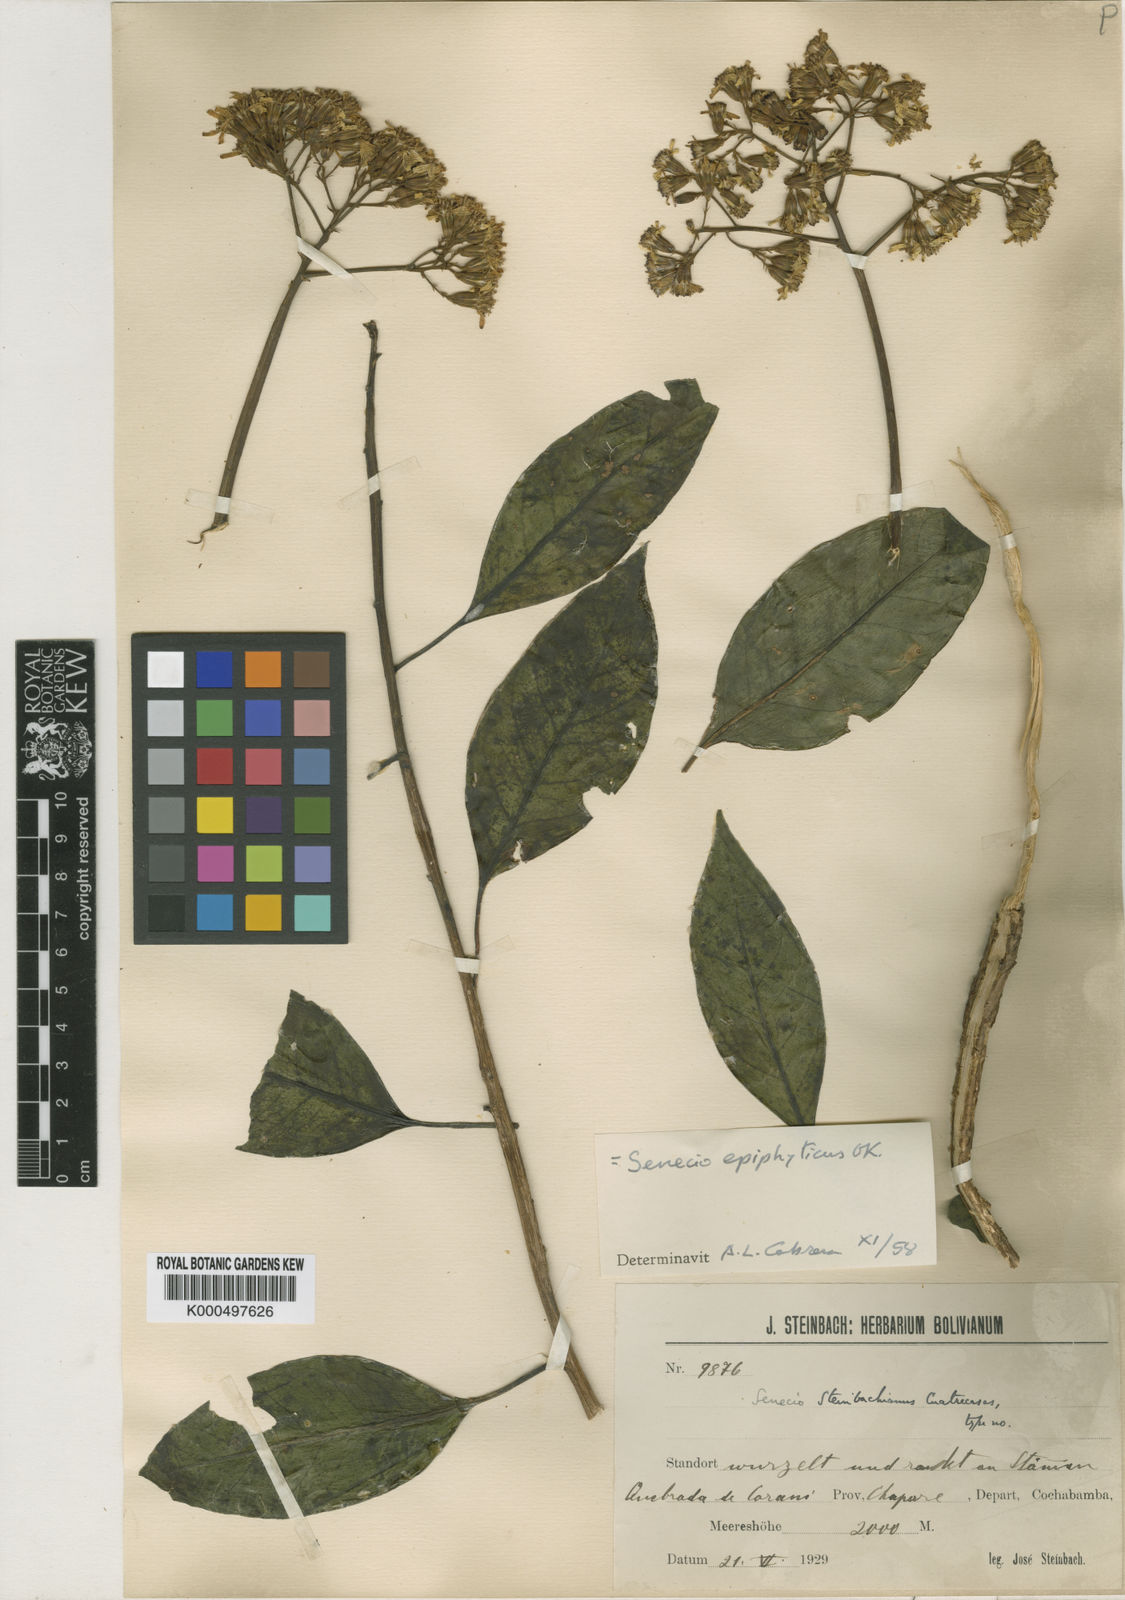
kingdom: Plantae
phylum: Tracheophyta
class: Magnoliopsida
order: Asterales
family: Asteraceae
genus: Pentacalia
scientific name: Pentacalia epiphytica
